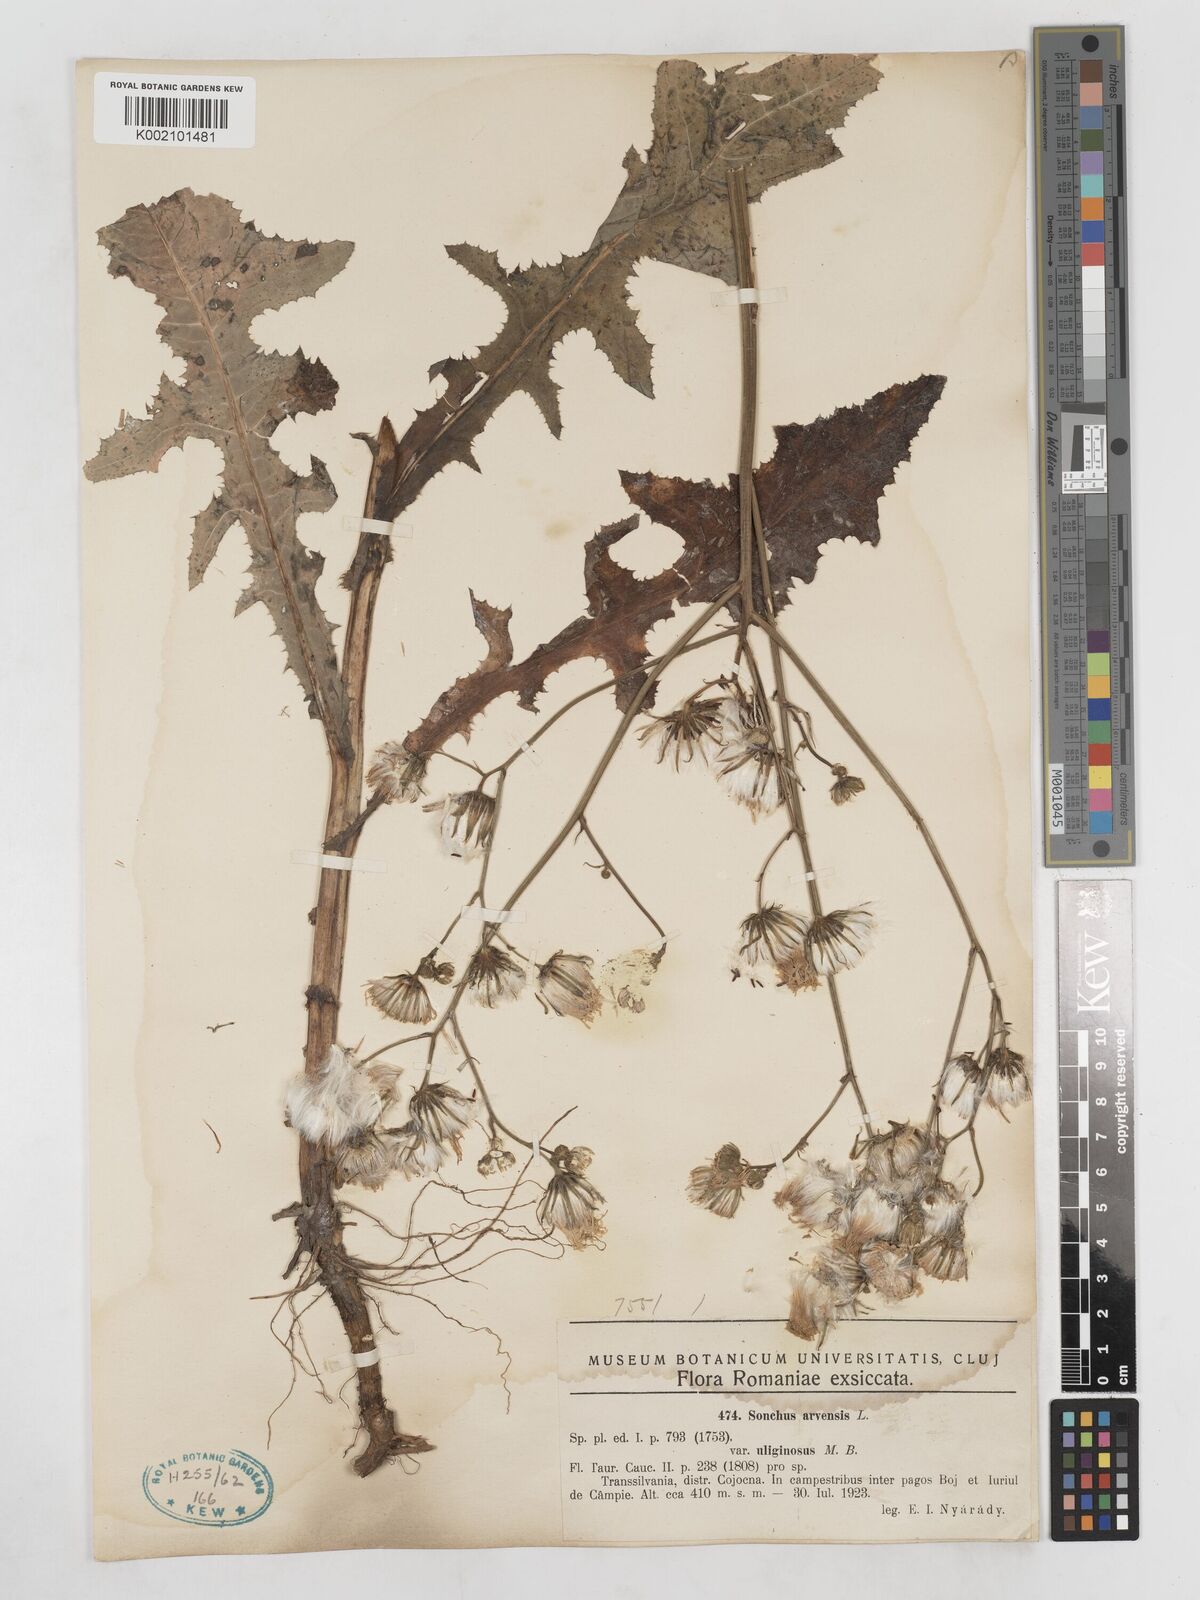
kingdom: Plantae
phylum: Tracheophyta
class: Magnoliopsida
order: Asterales
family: Asteraceae
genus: Sonchus
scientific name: Sonchus arvensis
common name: Perennial sow-thistle
